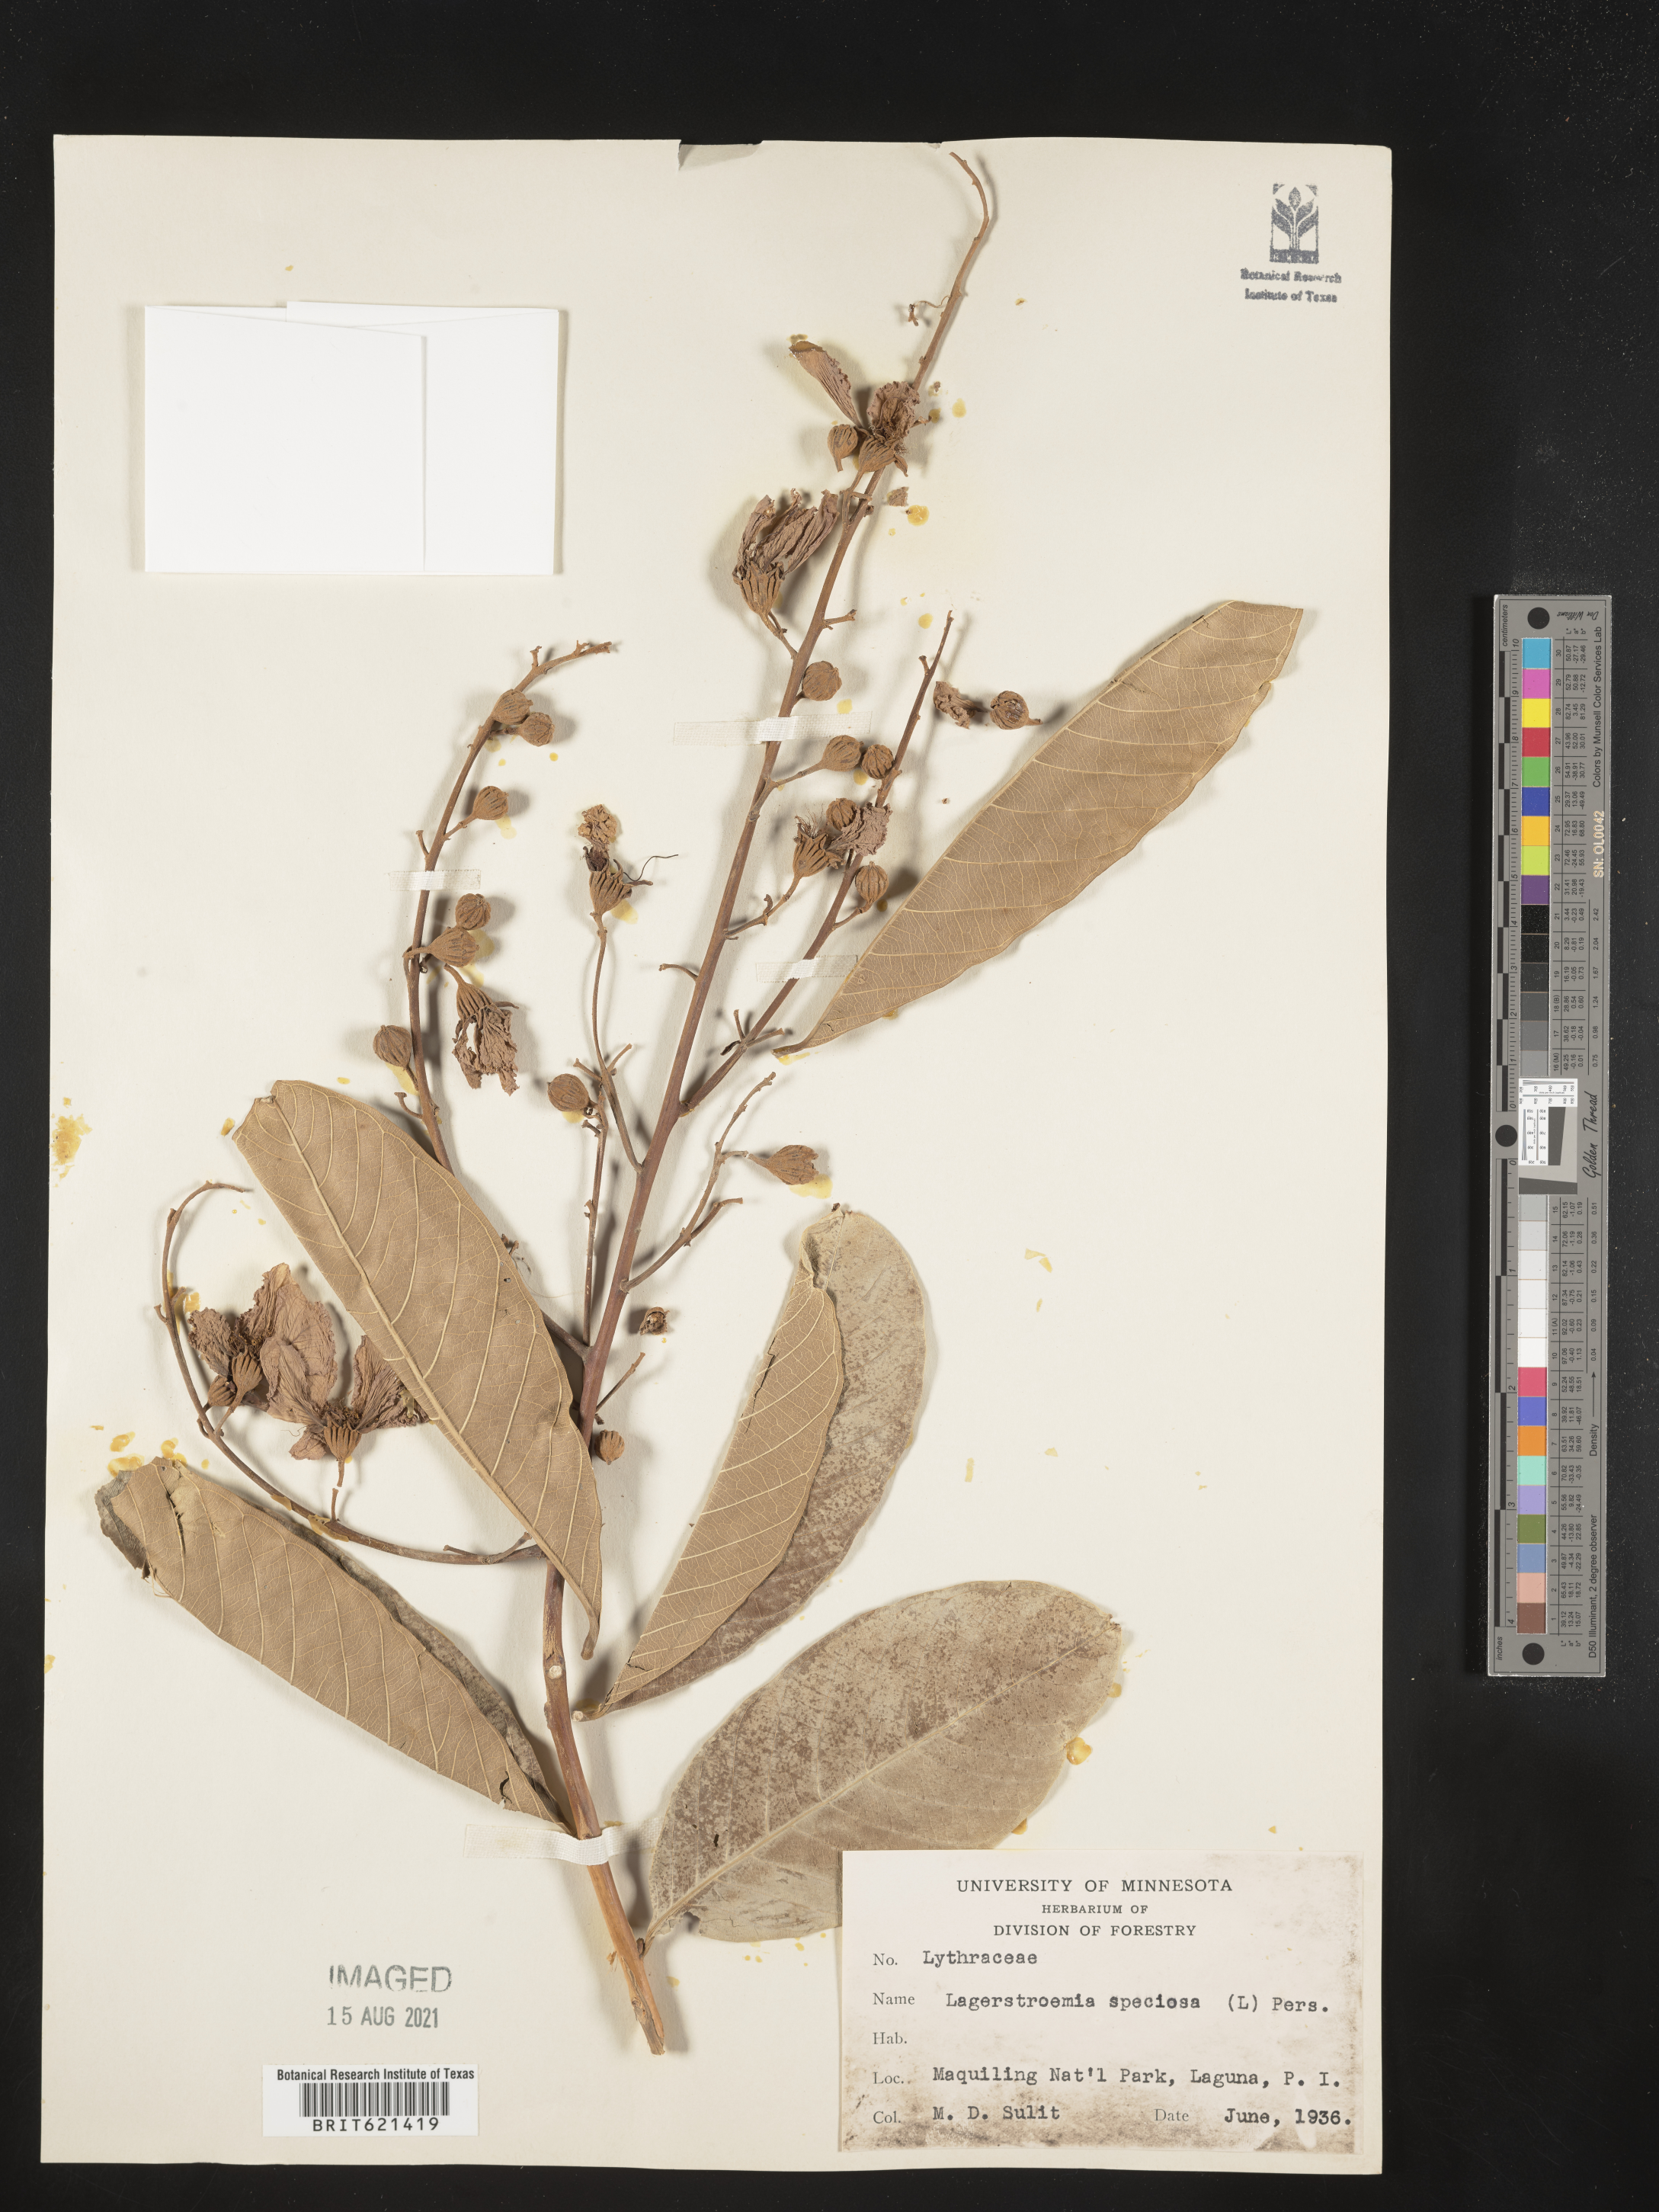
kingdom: Plantae
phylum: Tracheophyta
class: Magnoliopsida
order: Myrtales
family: Lythraceae
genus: Lagerstroemia
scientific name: Lagerstroemia speciosa
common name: Queen's crape-myrtle
